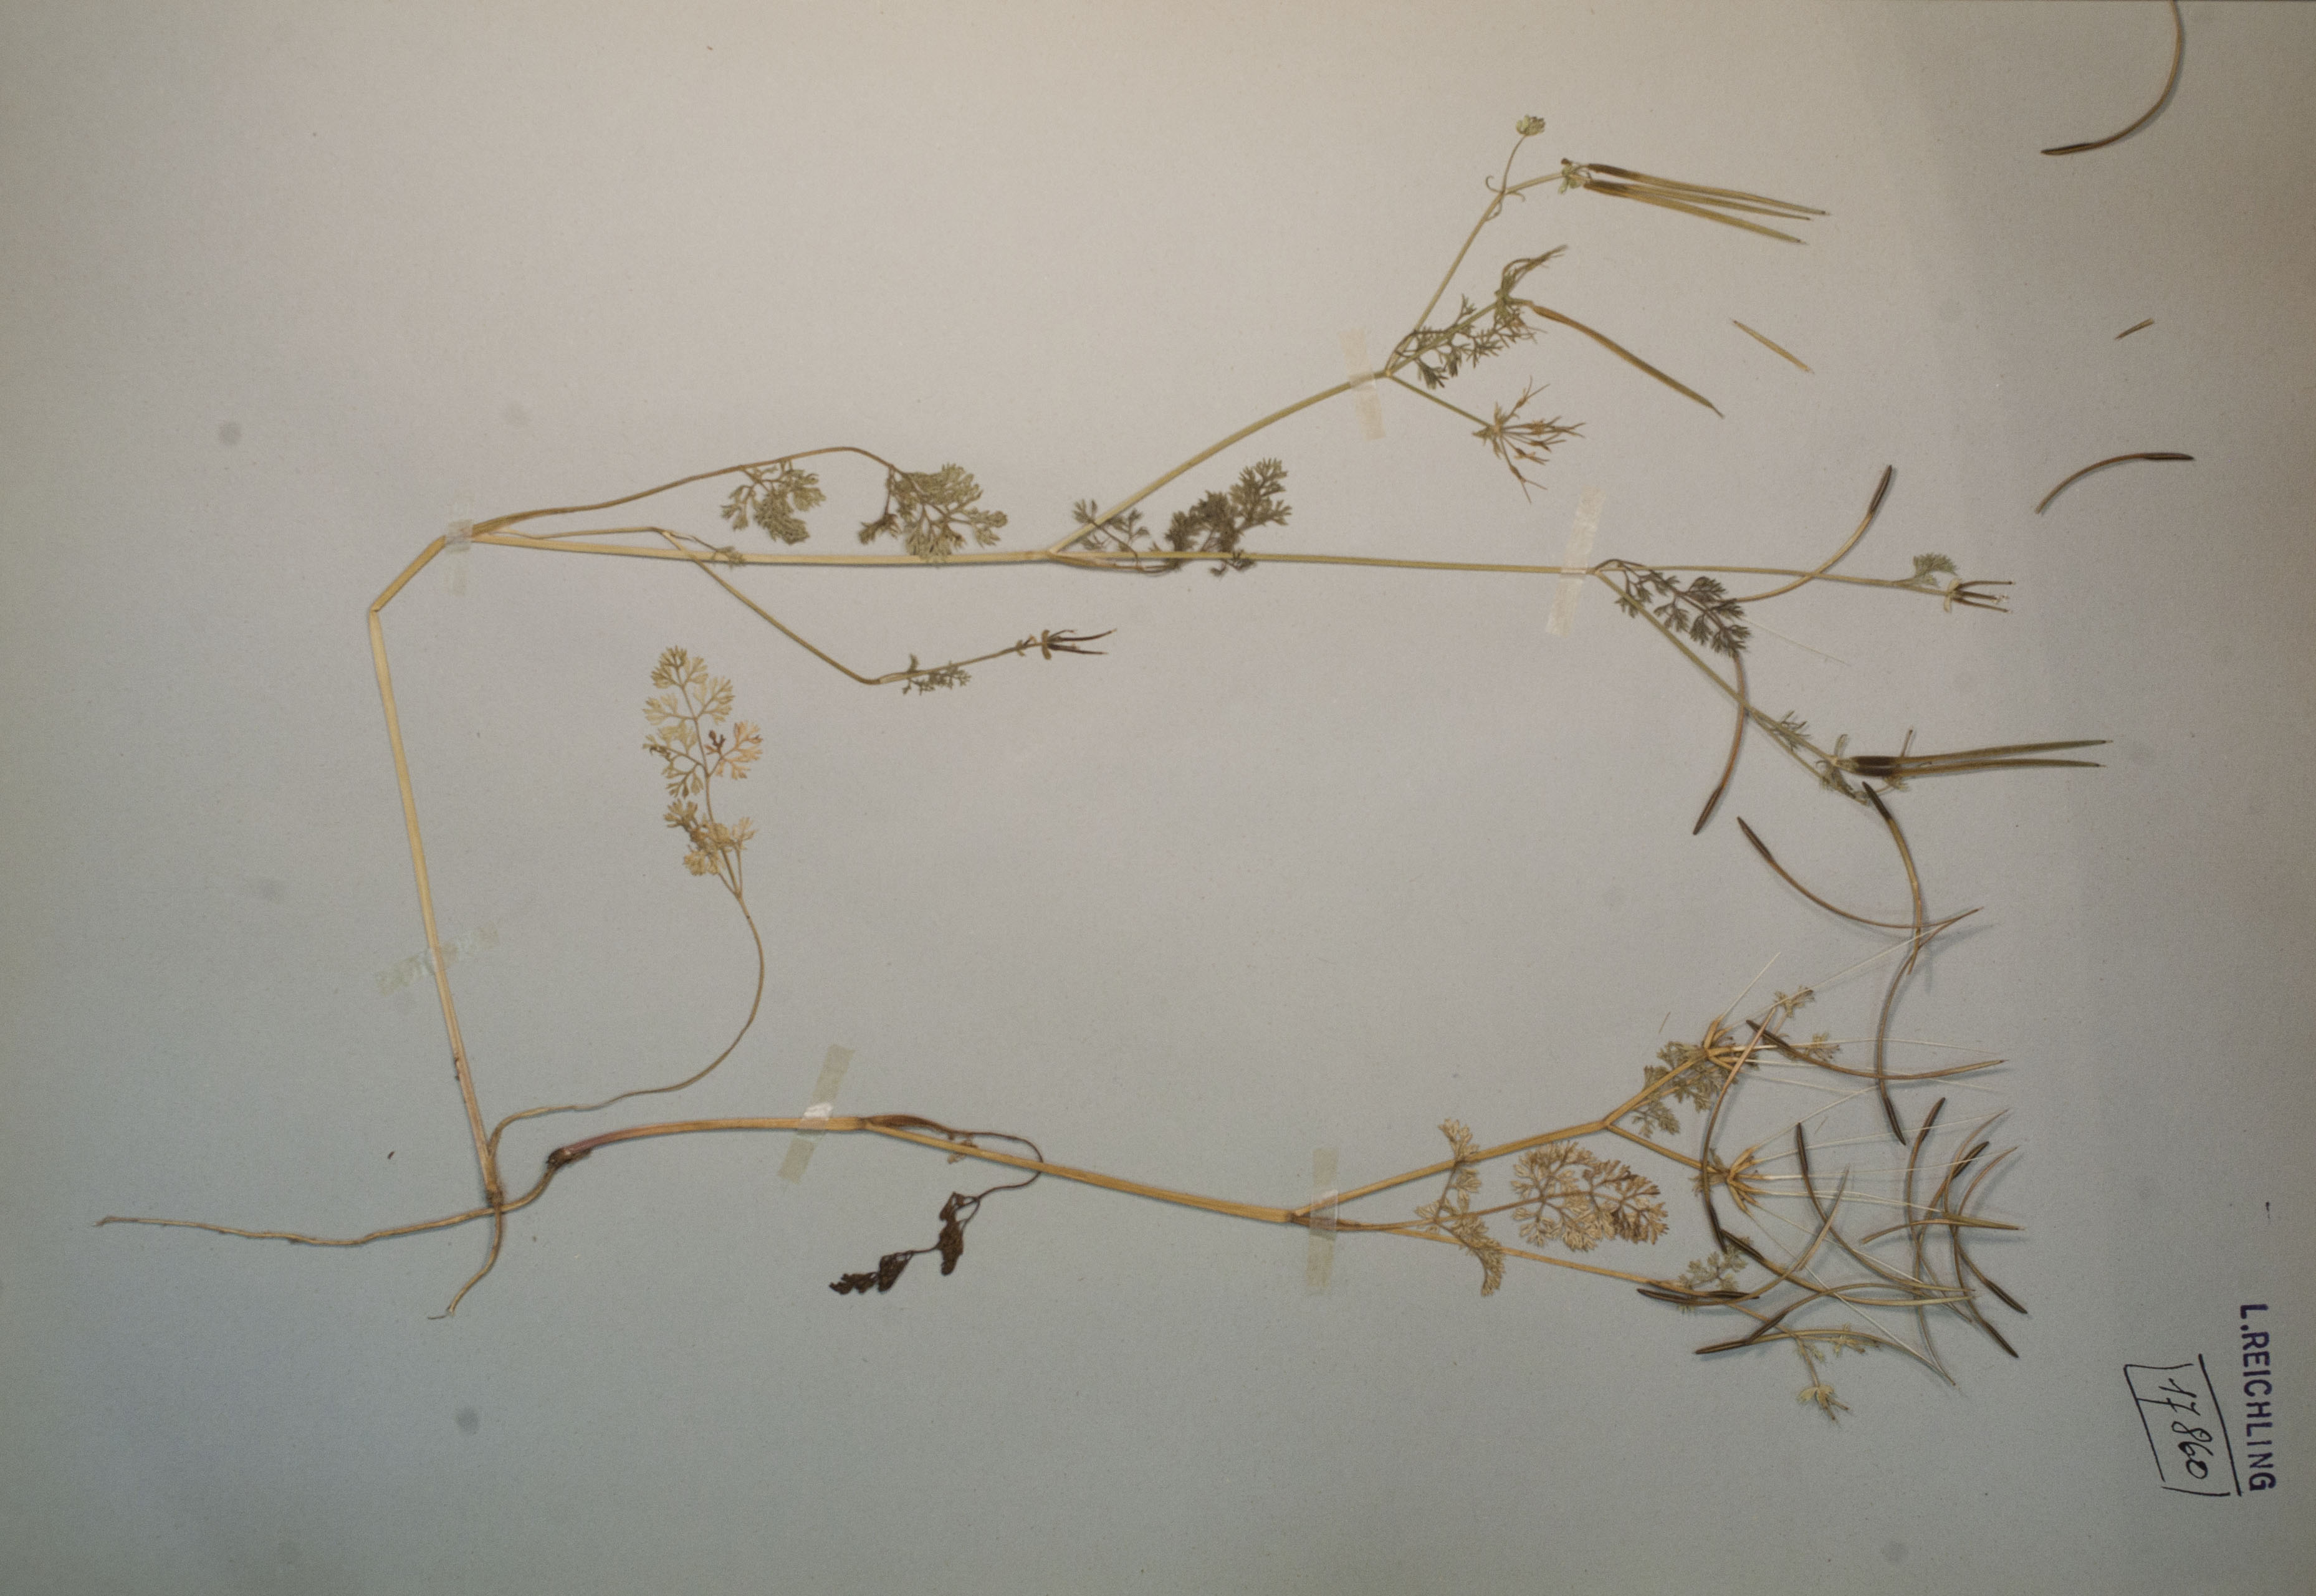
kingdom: Plantae
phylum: Tracheophyta
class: Magnoliopsida
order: Apiales
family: Apiaceae
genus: Scandix
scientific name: Scandix pecten-veneris
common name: Shepherd's-needle
